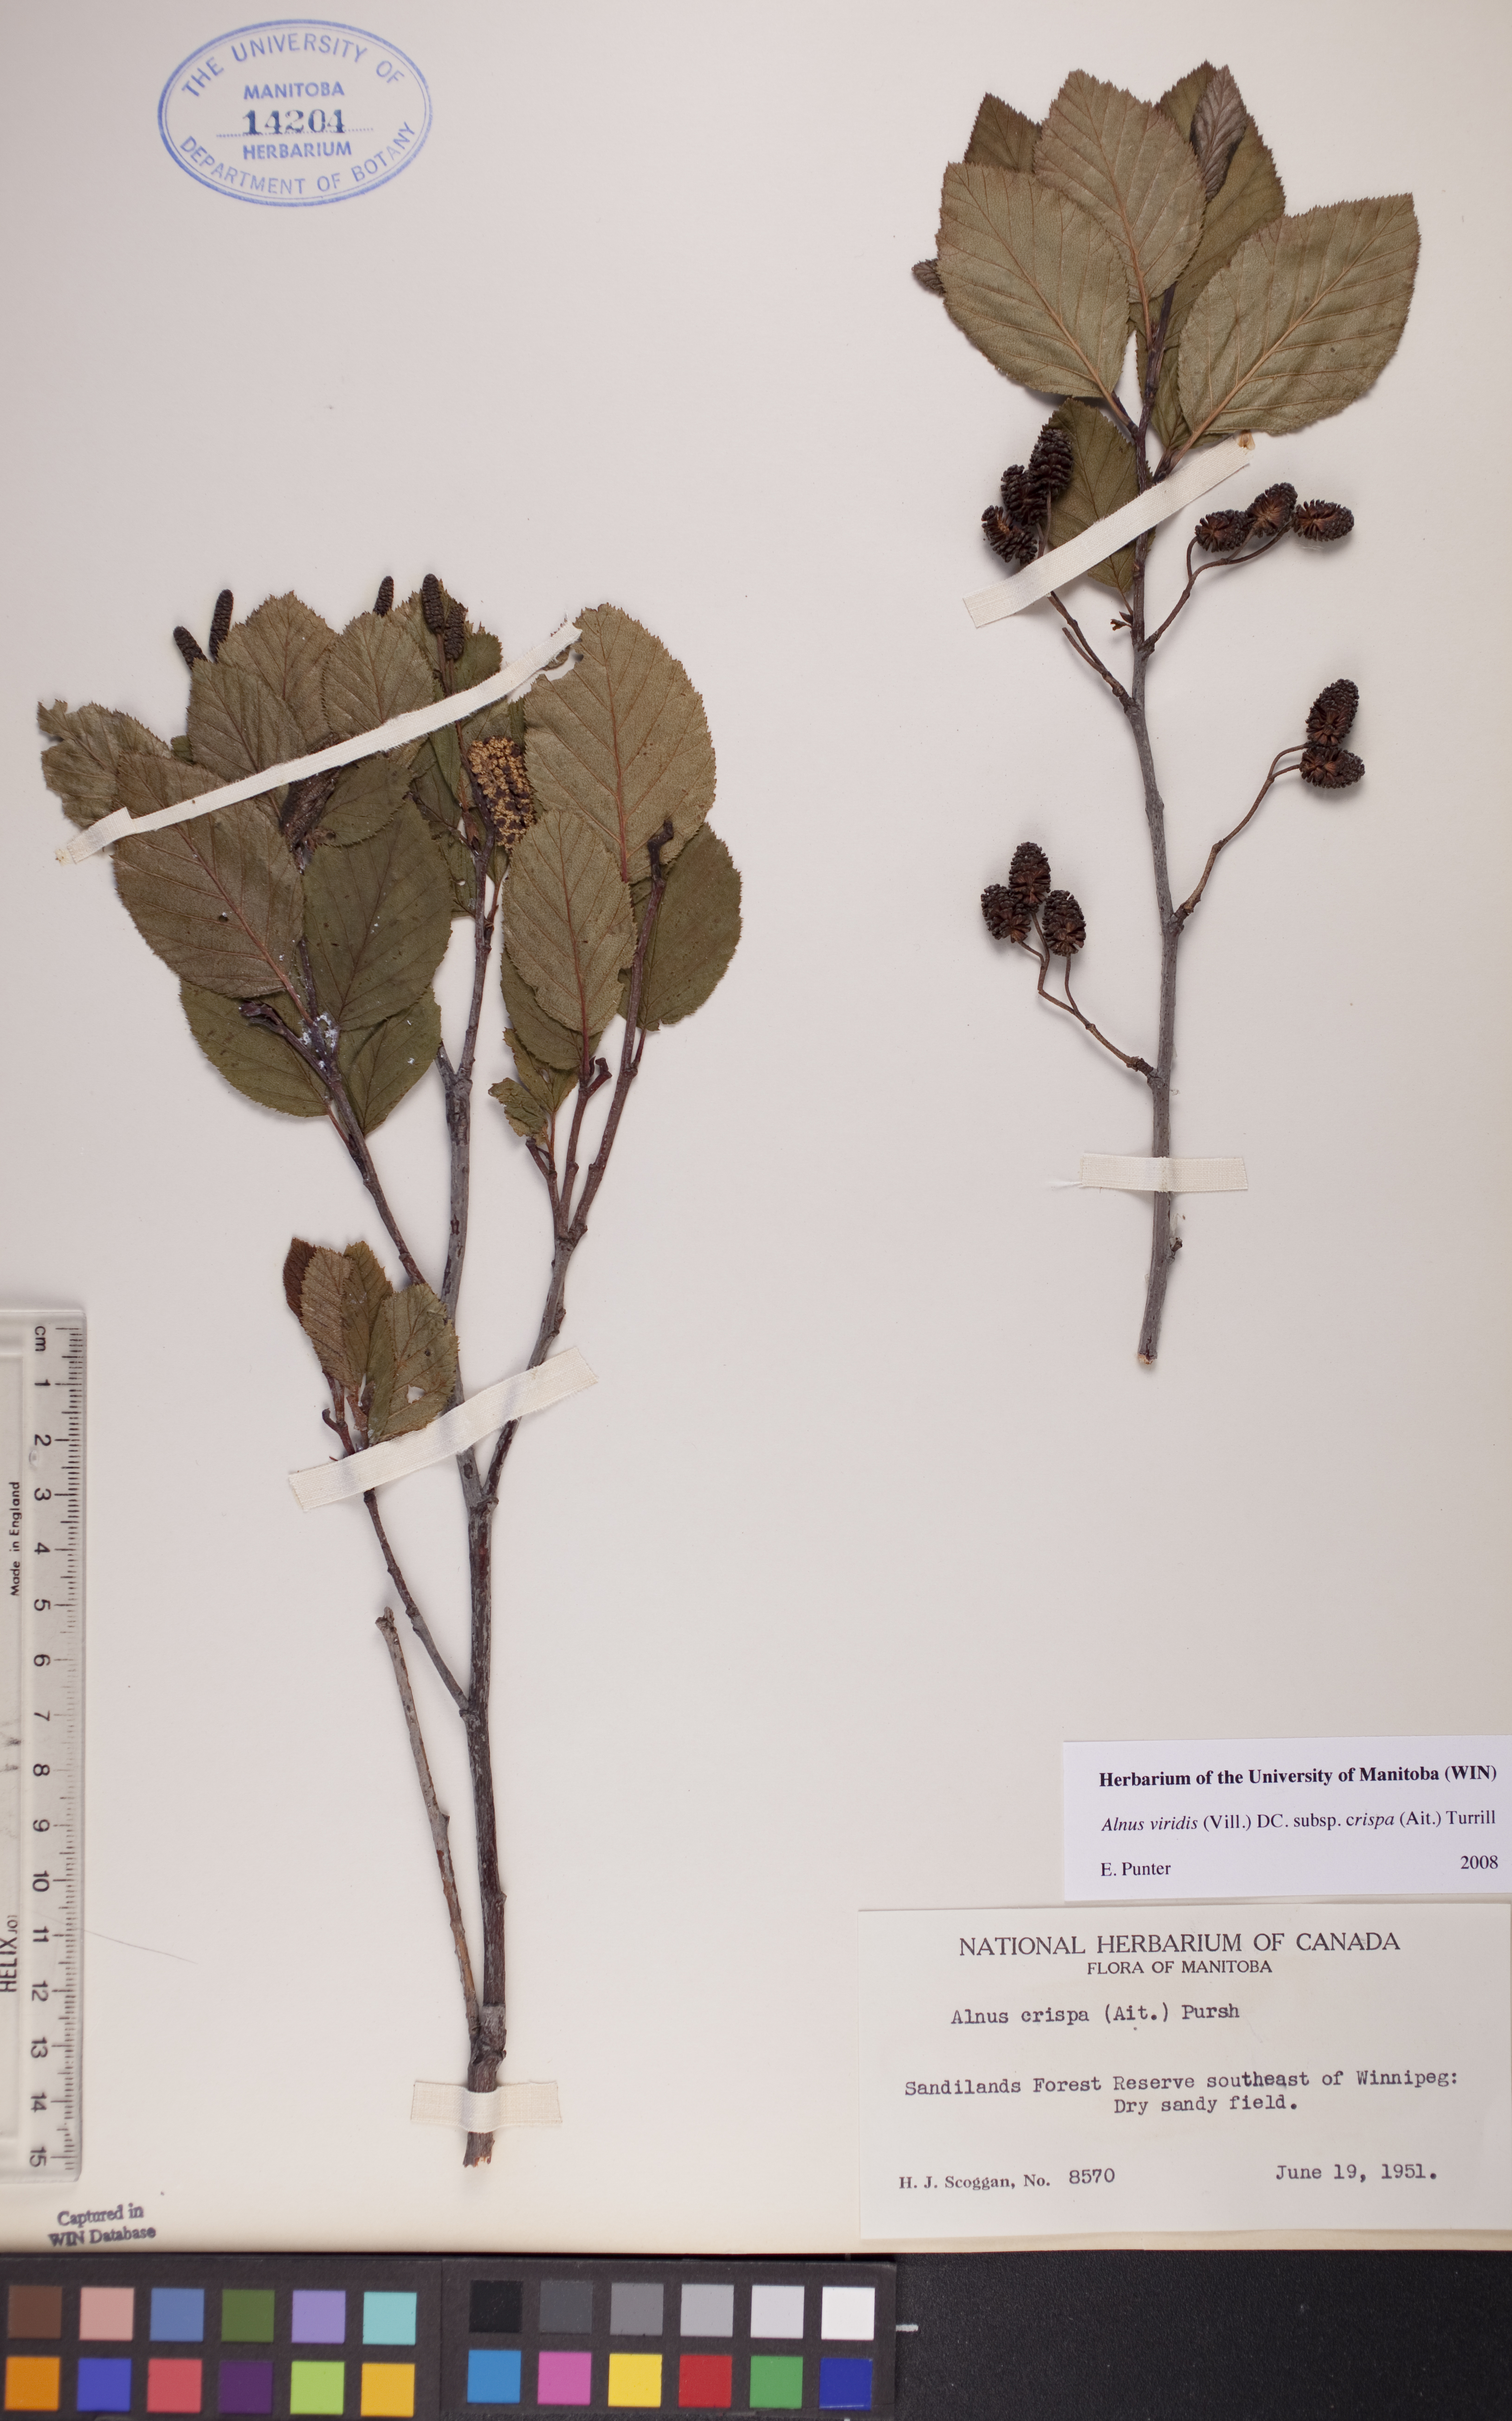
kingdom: Plantae
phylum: Tracheophyta
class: Magnoliopsida
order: Fagales
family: Betulaceae
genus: Alnus
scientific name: Alnus alnobetula
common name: Green alder
